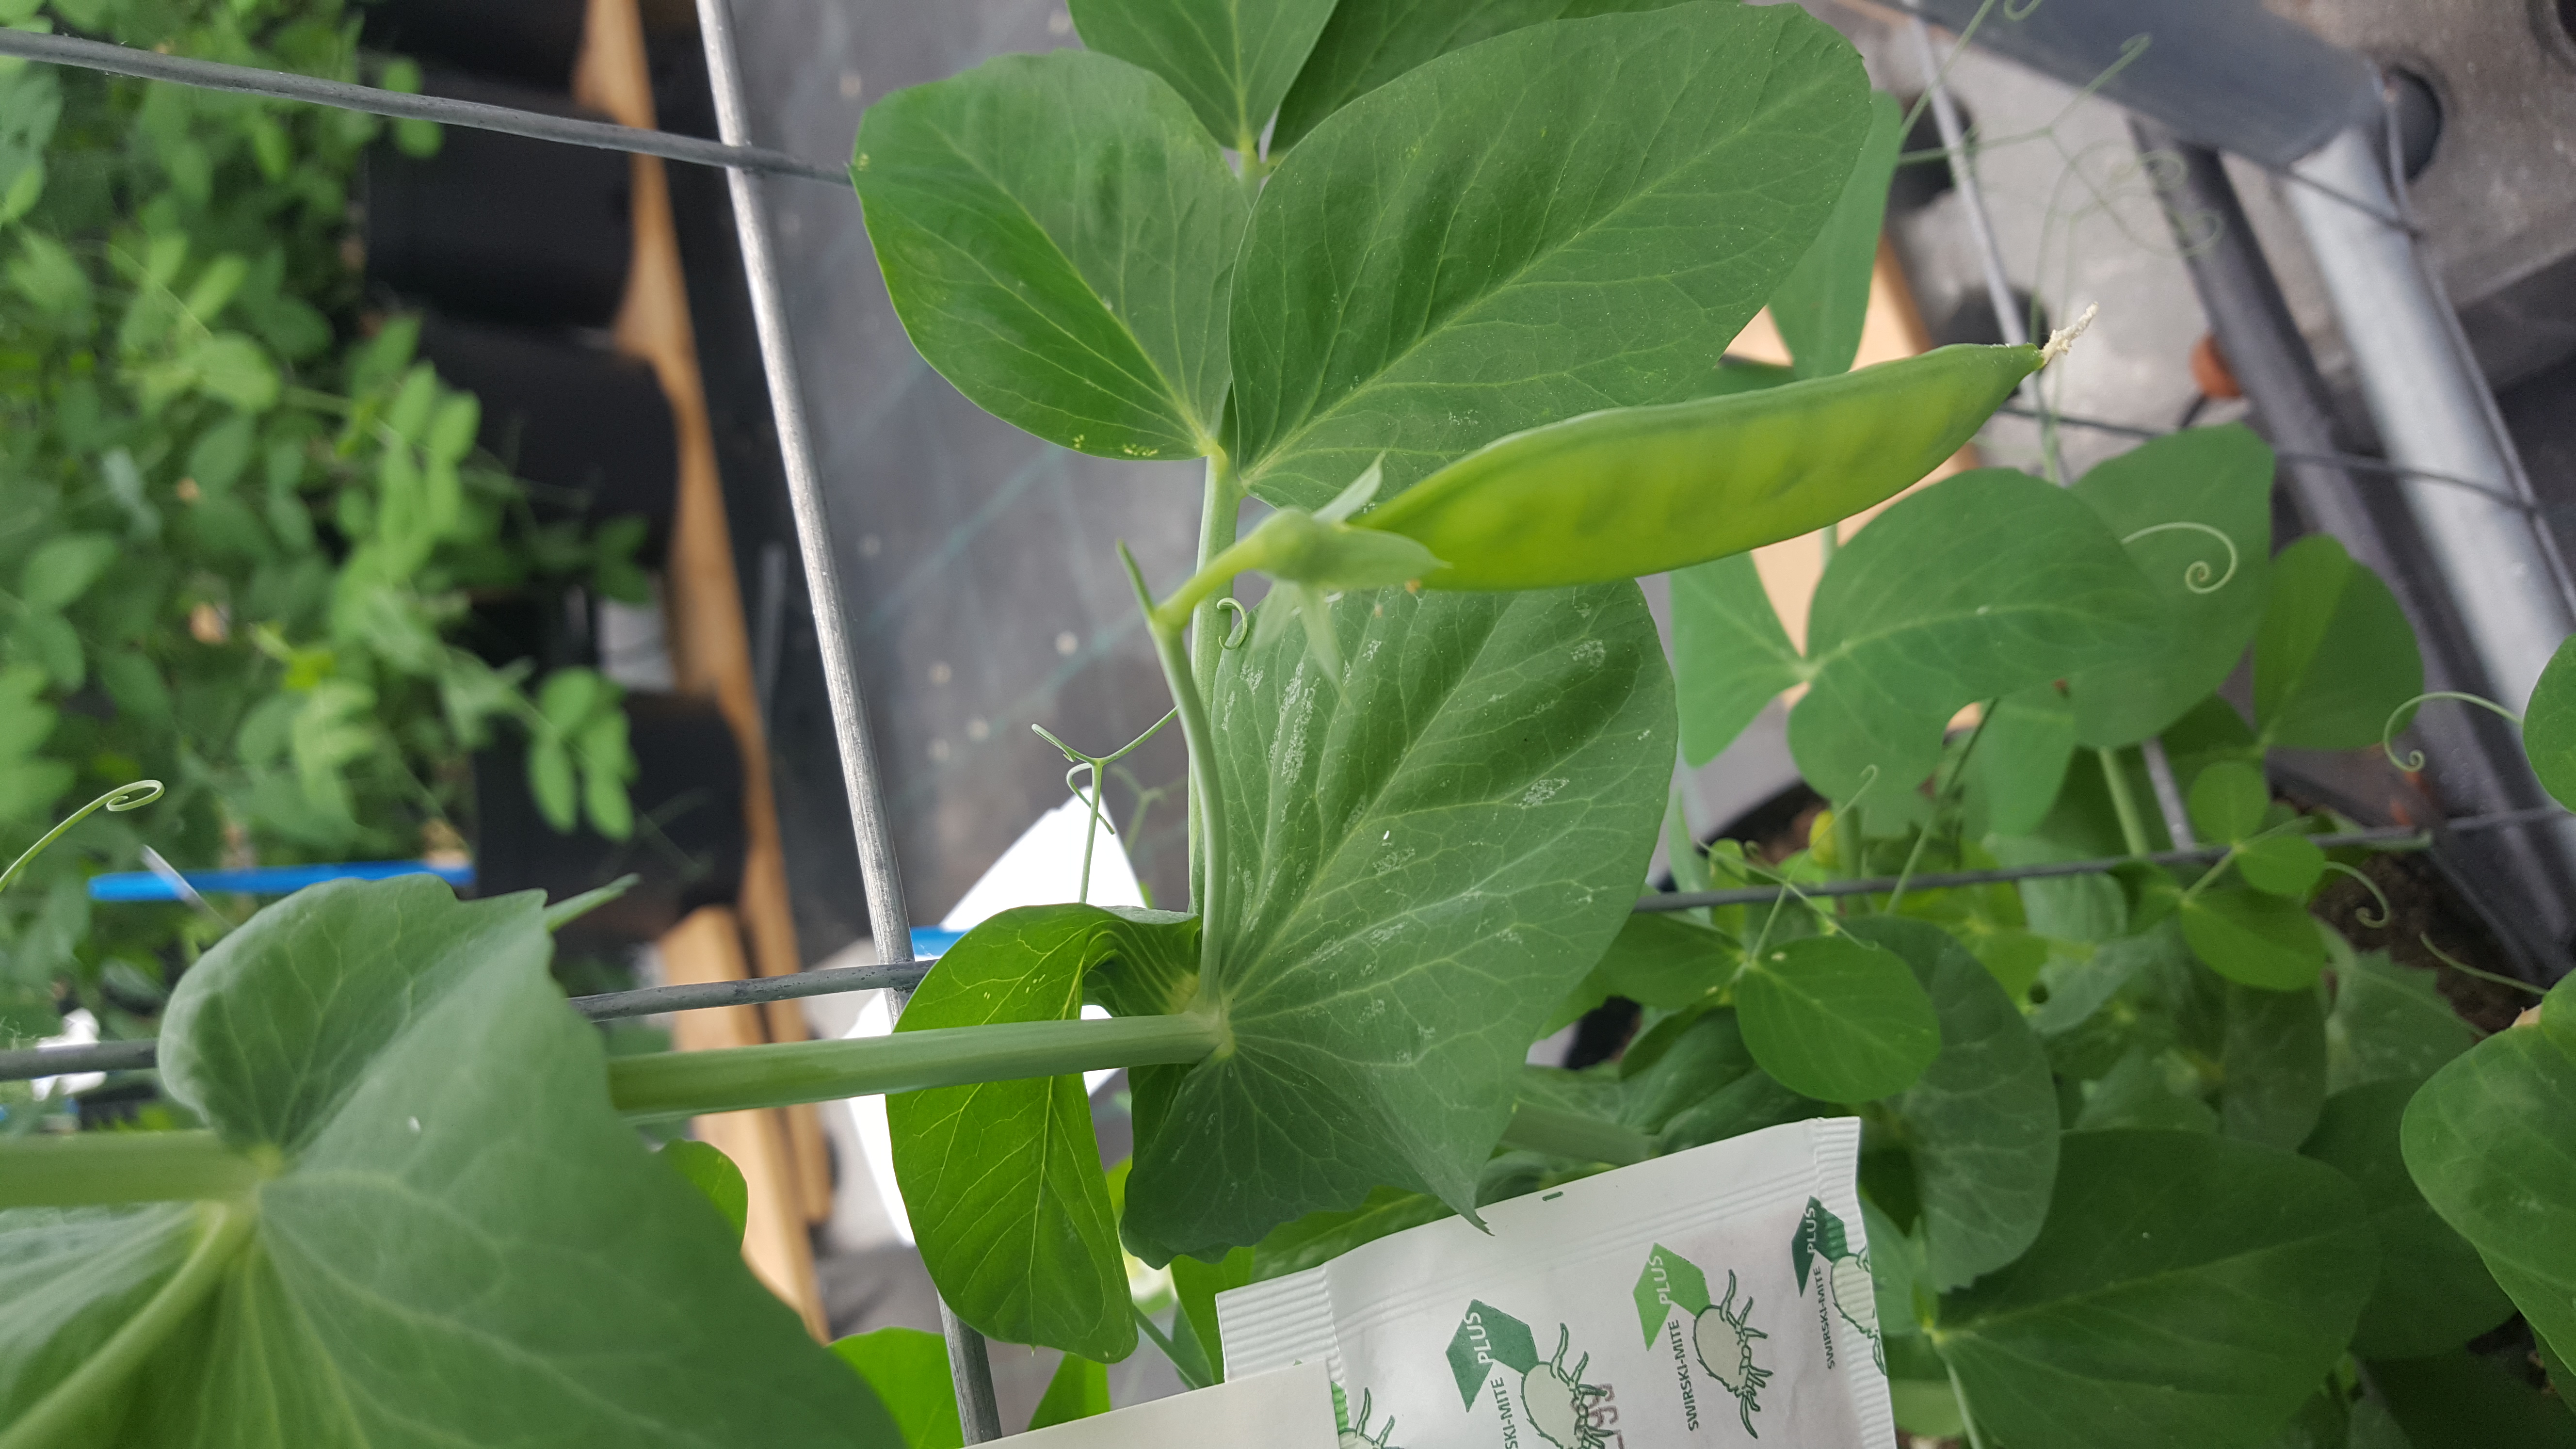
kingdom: Plantae
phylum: Tracheophyta
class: Magnoliopsida
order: Fabales
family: Fabaceae
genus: Lathyrus
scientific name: Lathyrus oleraceus
